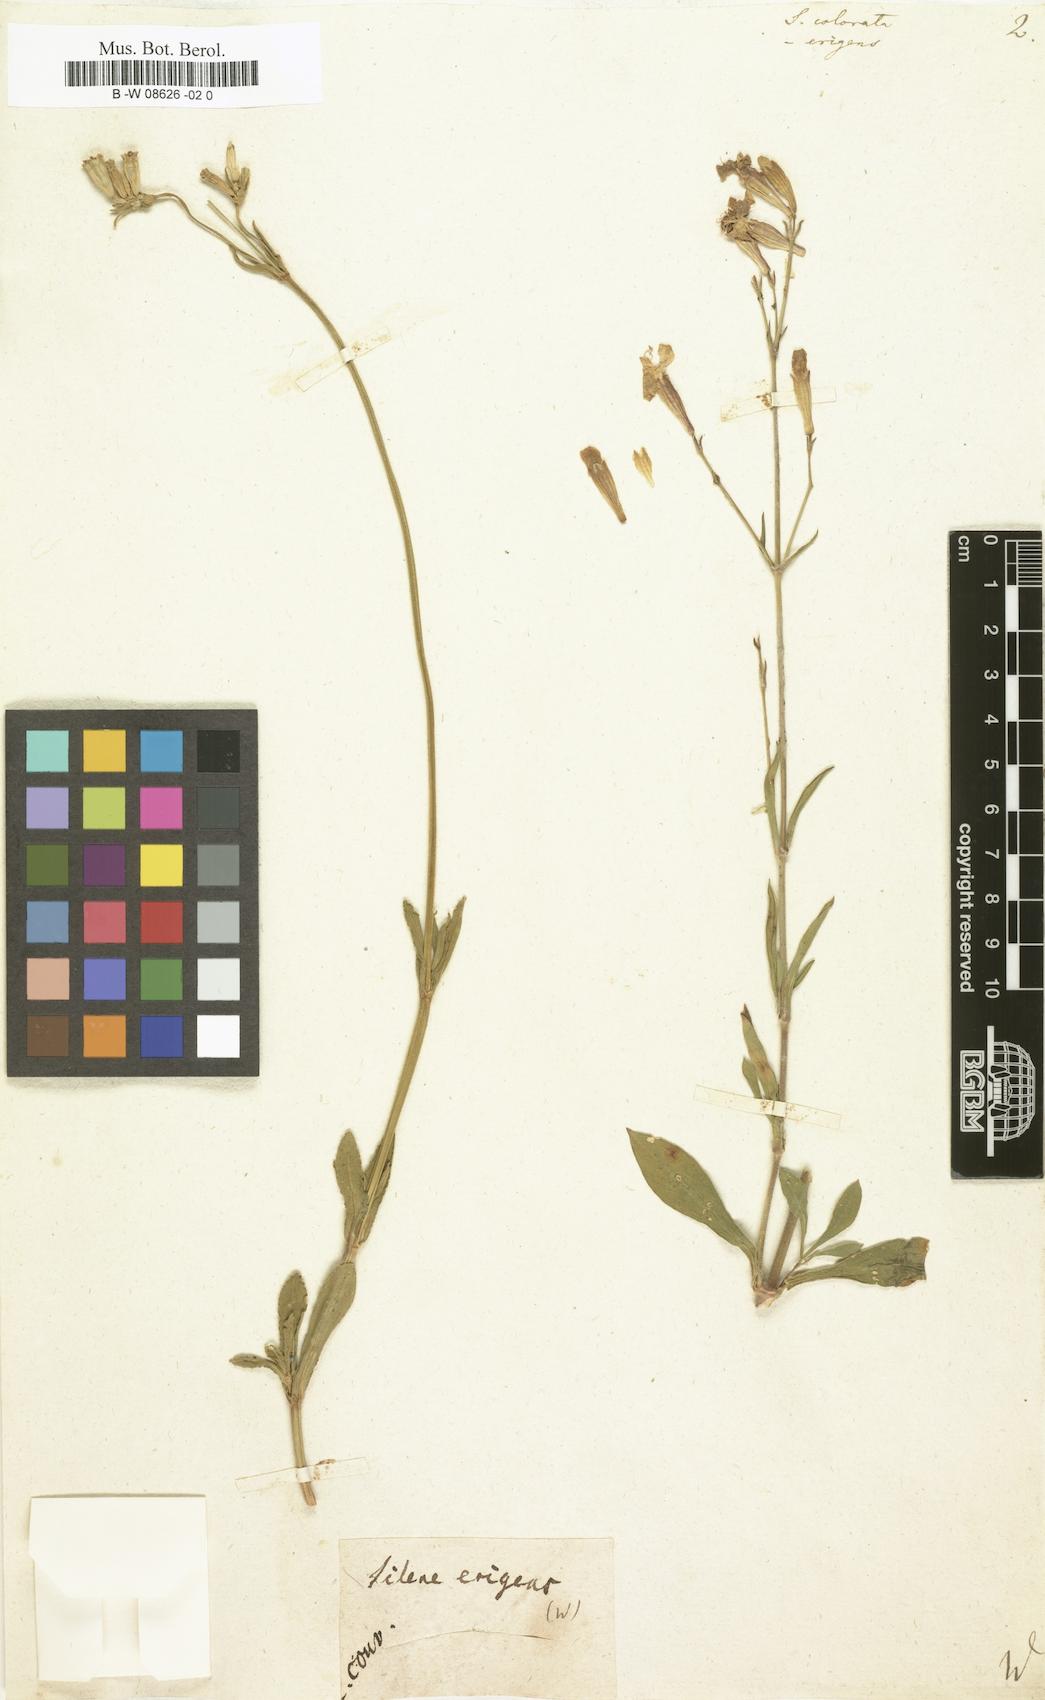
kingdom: Plantae
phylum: Tracheophyta
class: Magnoliopsida
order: Caryophyllales
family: Caryophyllaceae
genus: Silene
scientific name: Silene colorata
